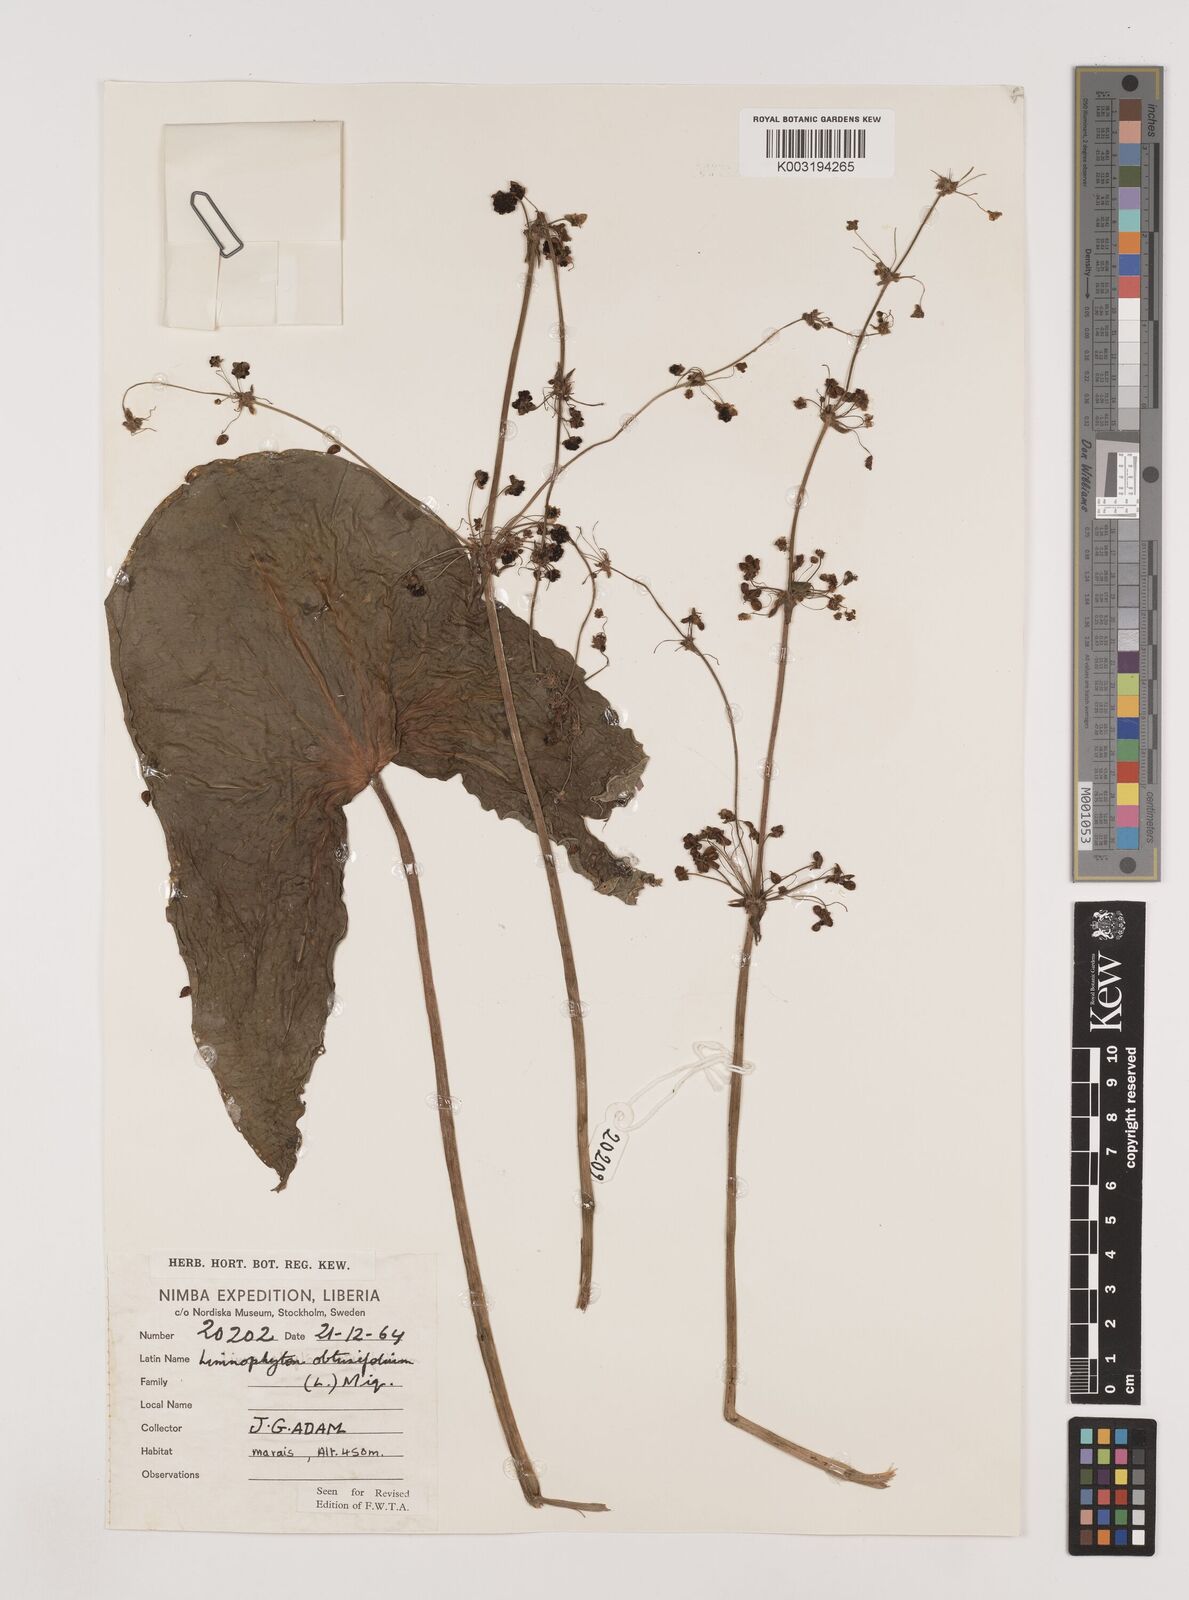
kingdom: Plantae
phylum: Tracheophyta
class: Liliopsida
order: Alismatales
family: Alismataceae
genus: Limnophyton
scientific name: Limnophyton obtusifolium
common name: Arrow head
